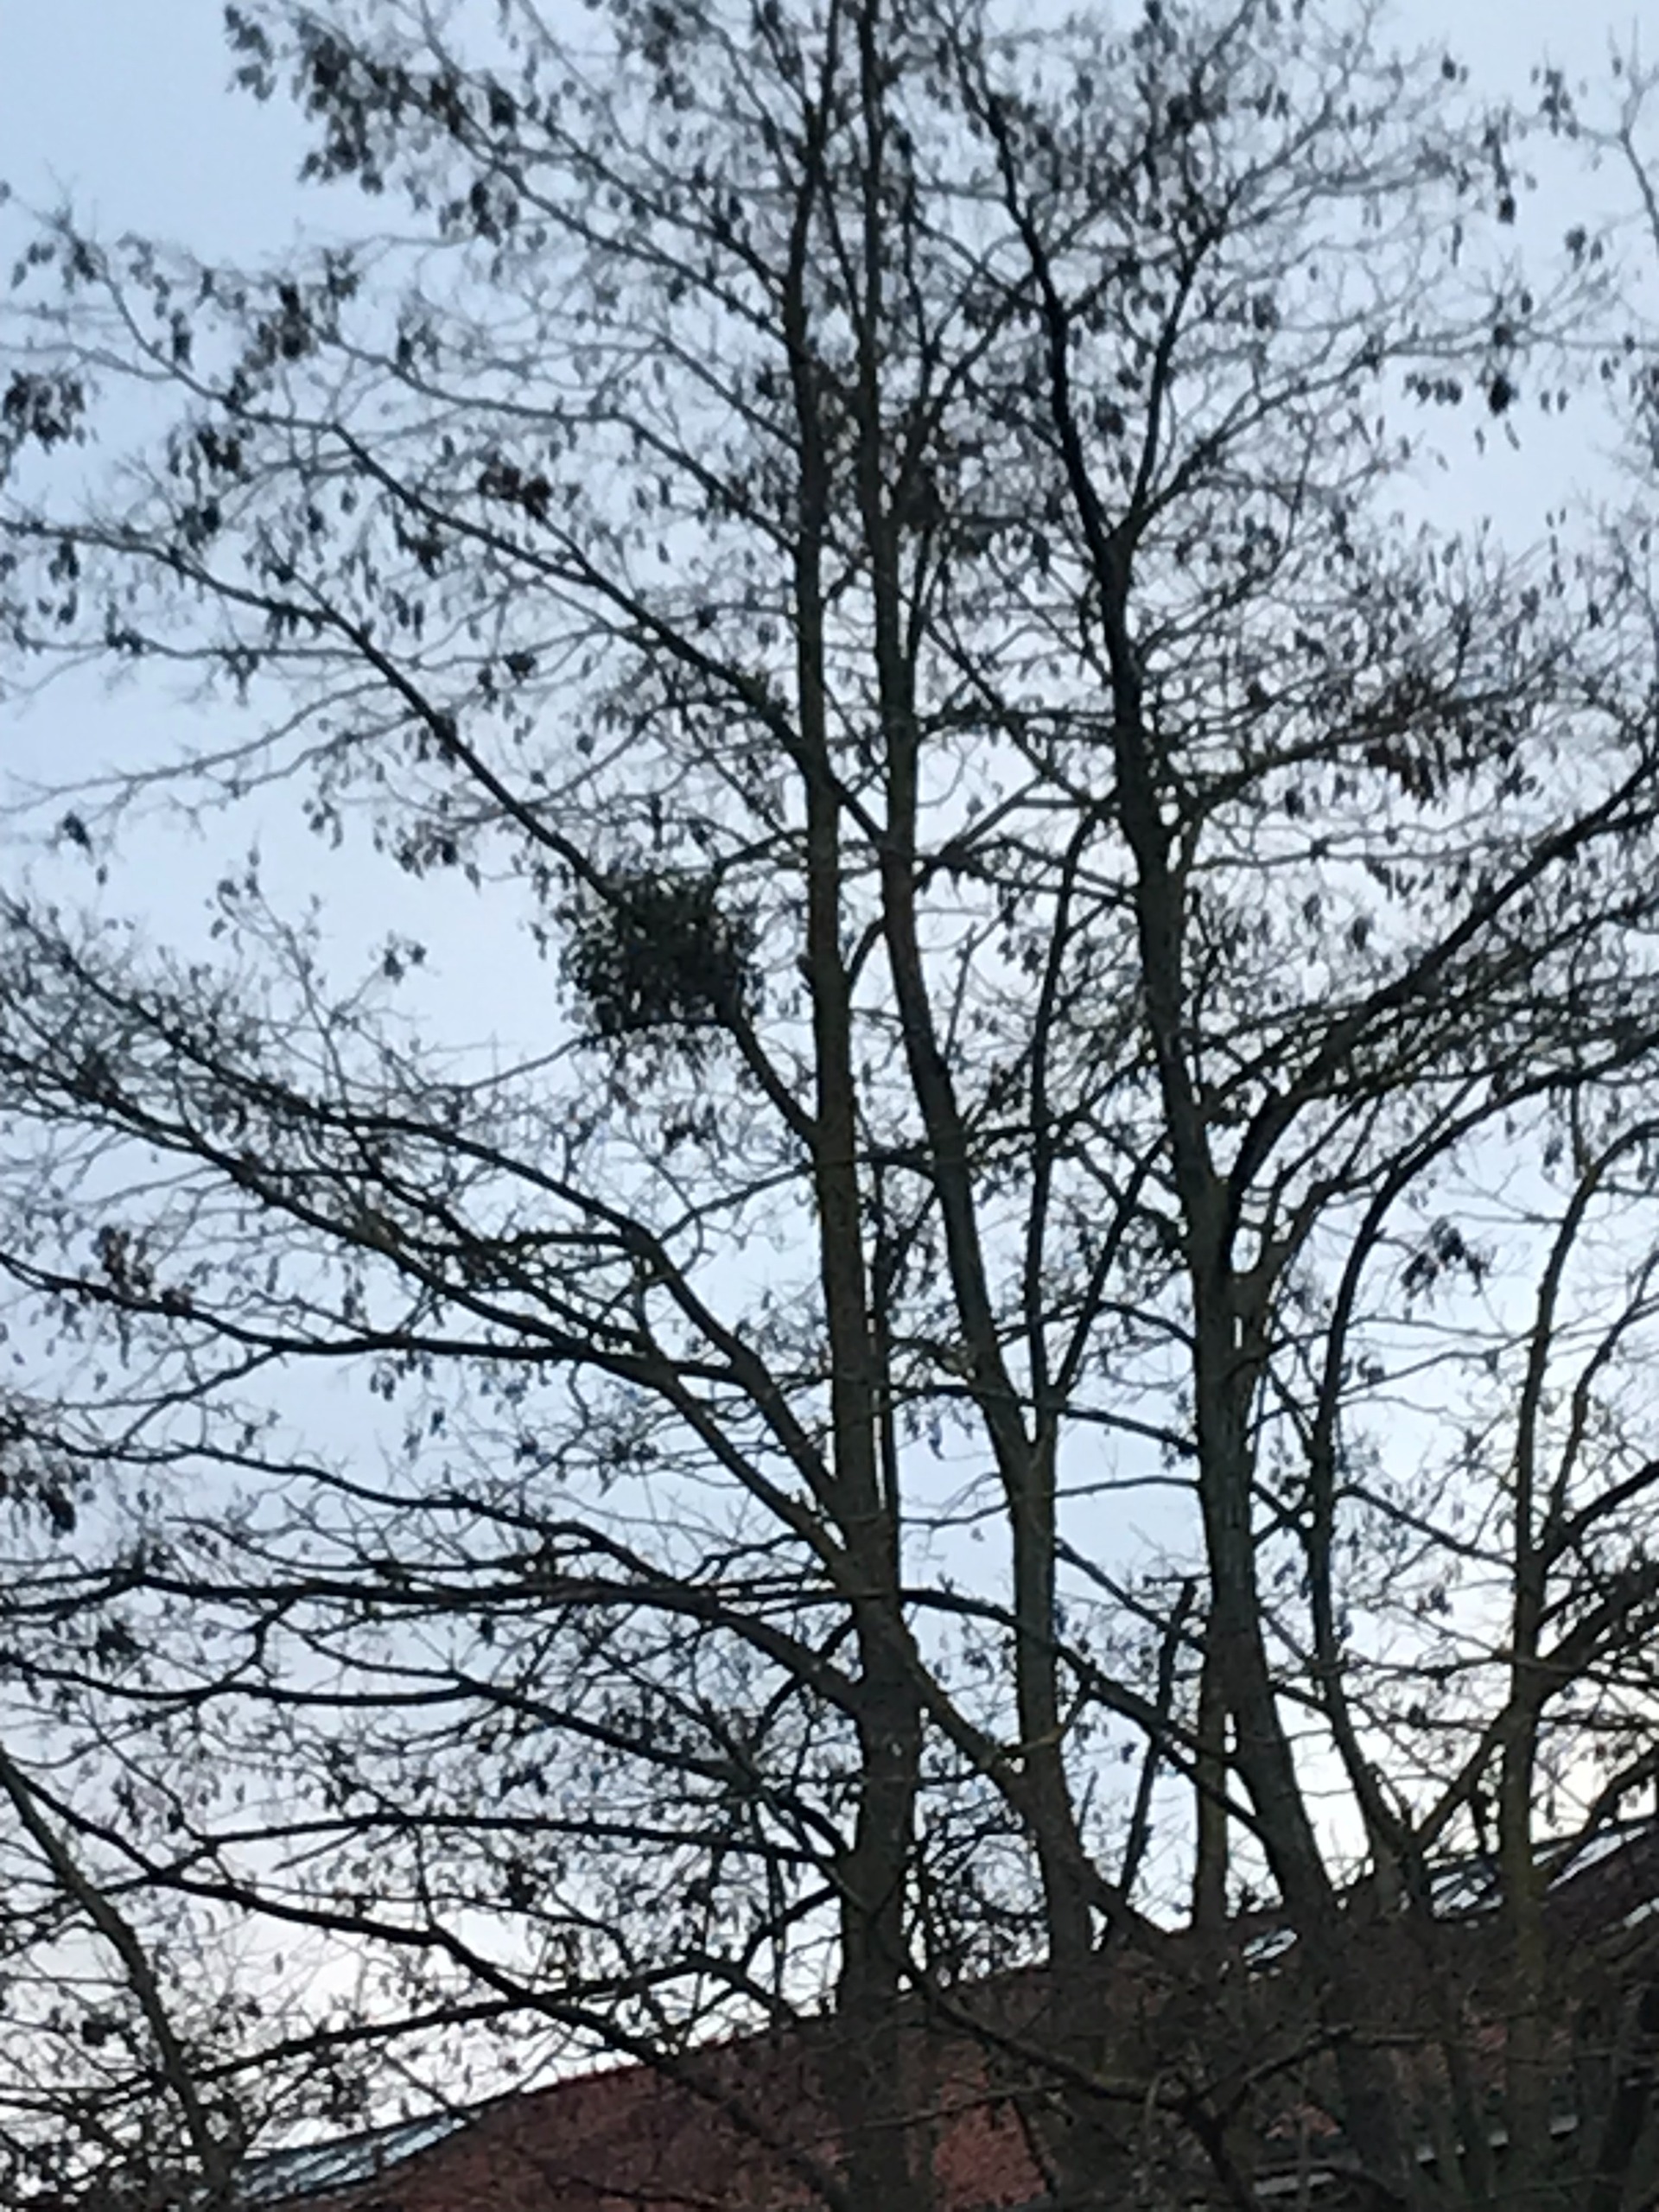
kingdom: Plantae
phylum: Tracheophyta
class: Magnoliopsida
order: Santalales
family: Viscaceae
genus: Viscum
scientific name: Viscum album
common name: Mistelten
